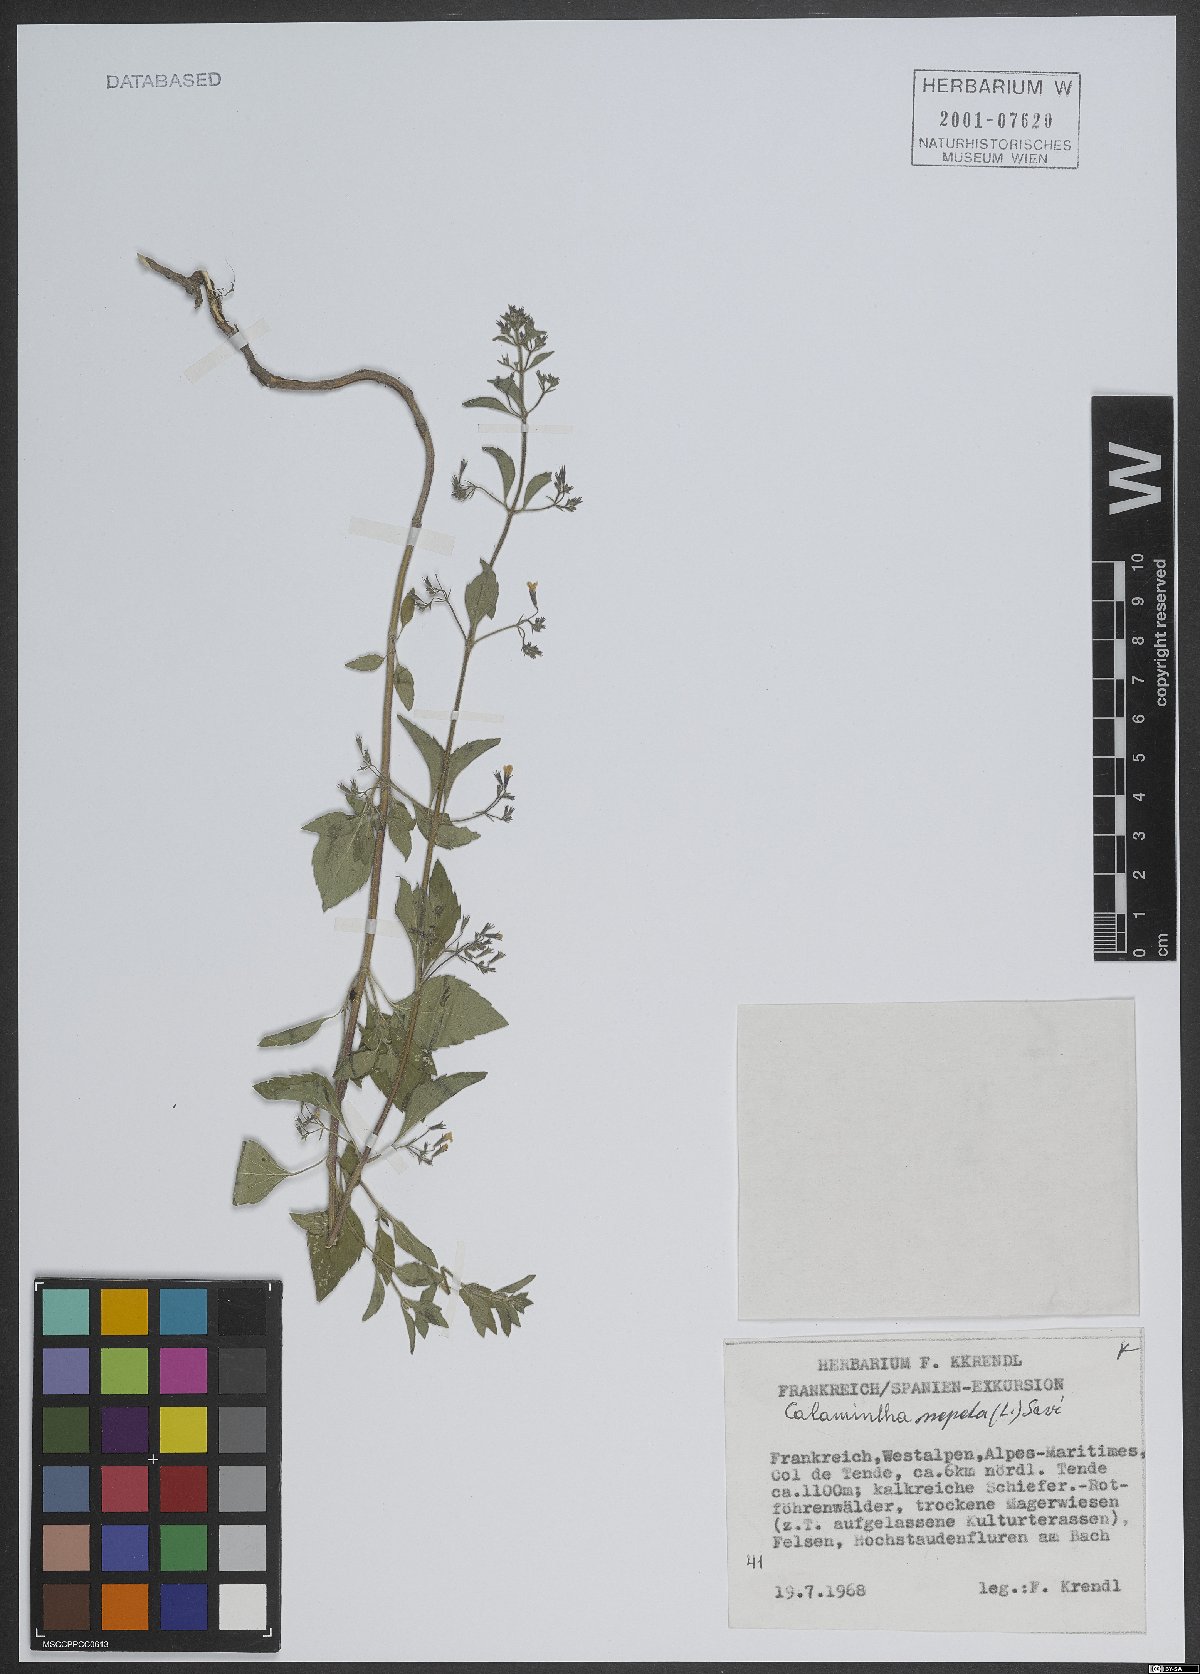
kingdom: Plantae
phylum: Tracheophyta
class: Magnoliopsida
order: Lamiales
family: Lamiaceae
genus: Clinopodium
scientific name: Clinopodium nepeta
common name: Lesser calamint
